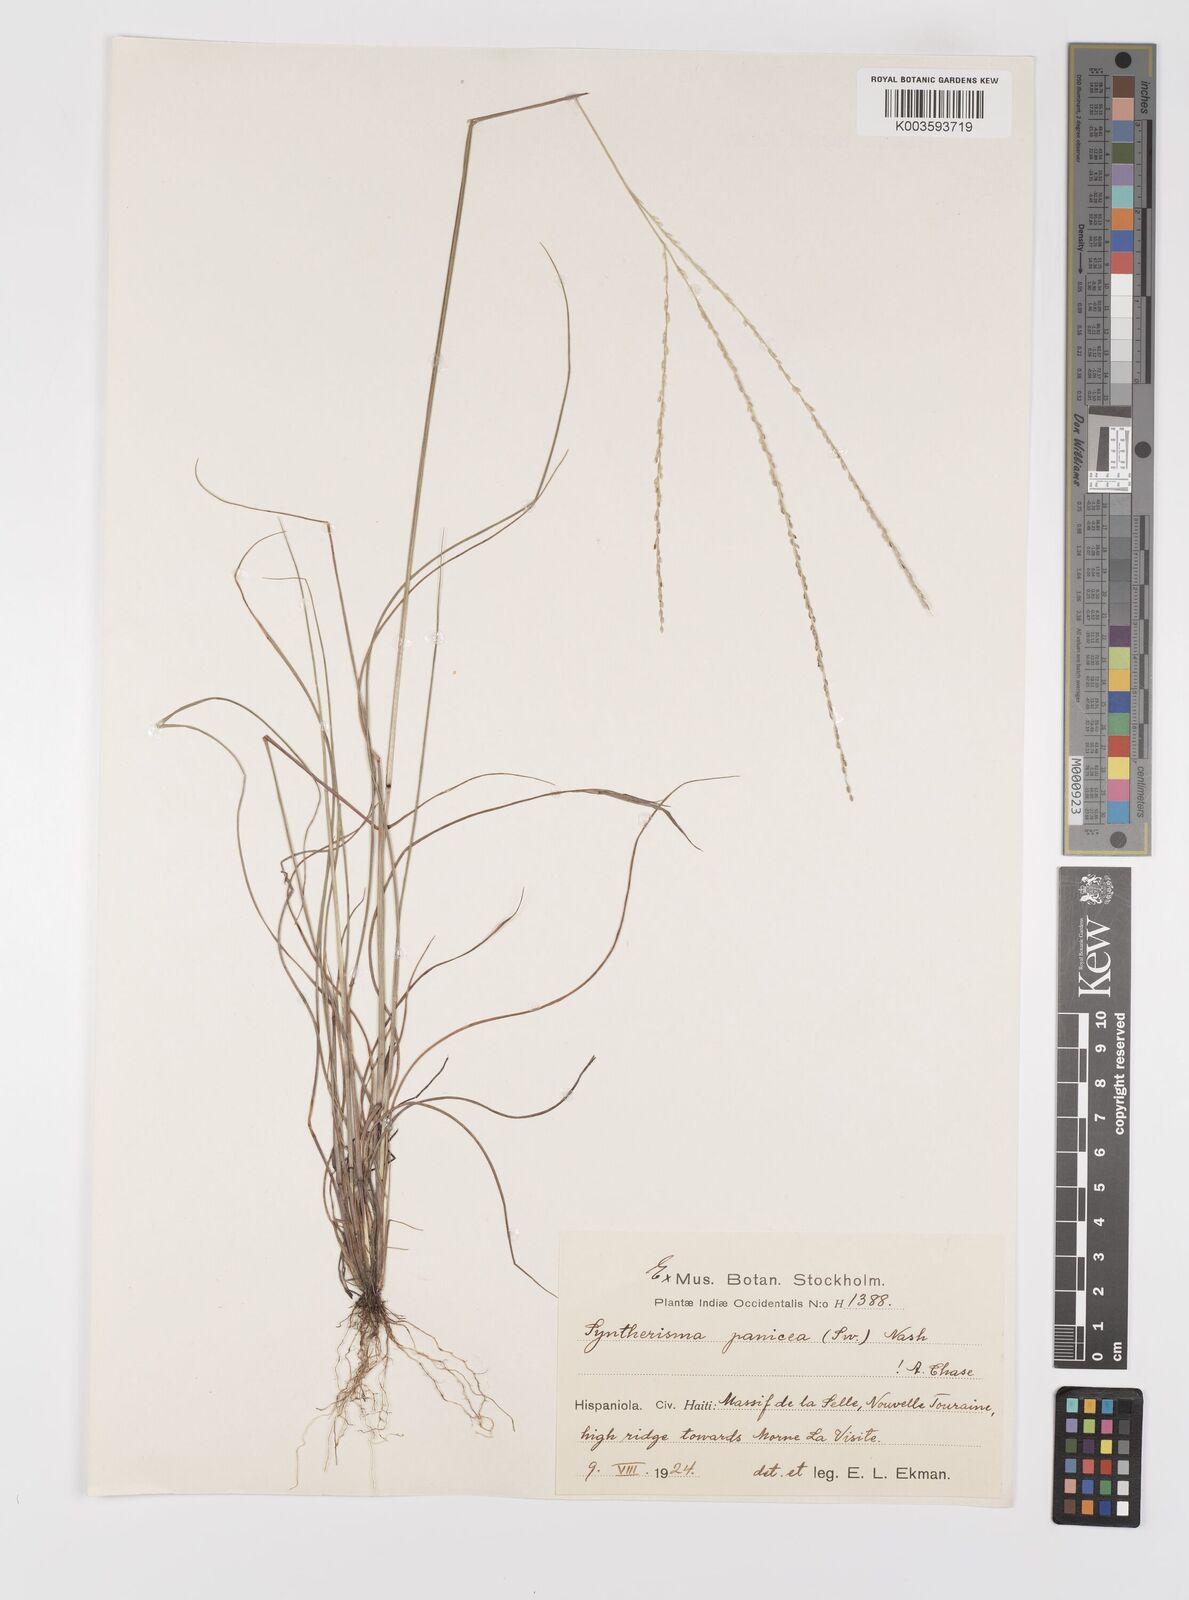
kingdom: Plantae
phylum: Tracheophyta
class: Liliopsida
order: Poales
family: Poaceae
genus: Digitaria
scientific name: Digitaria villosa
